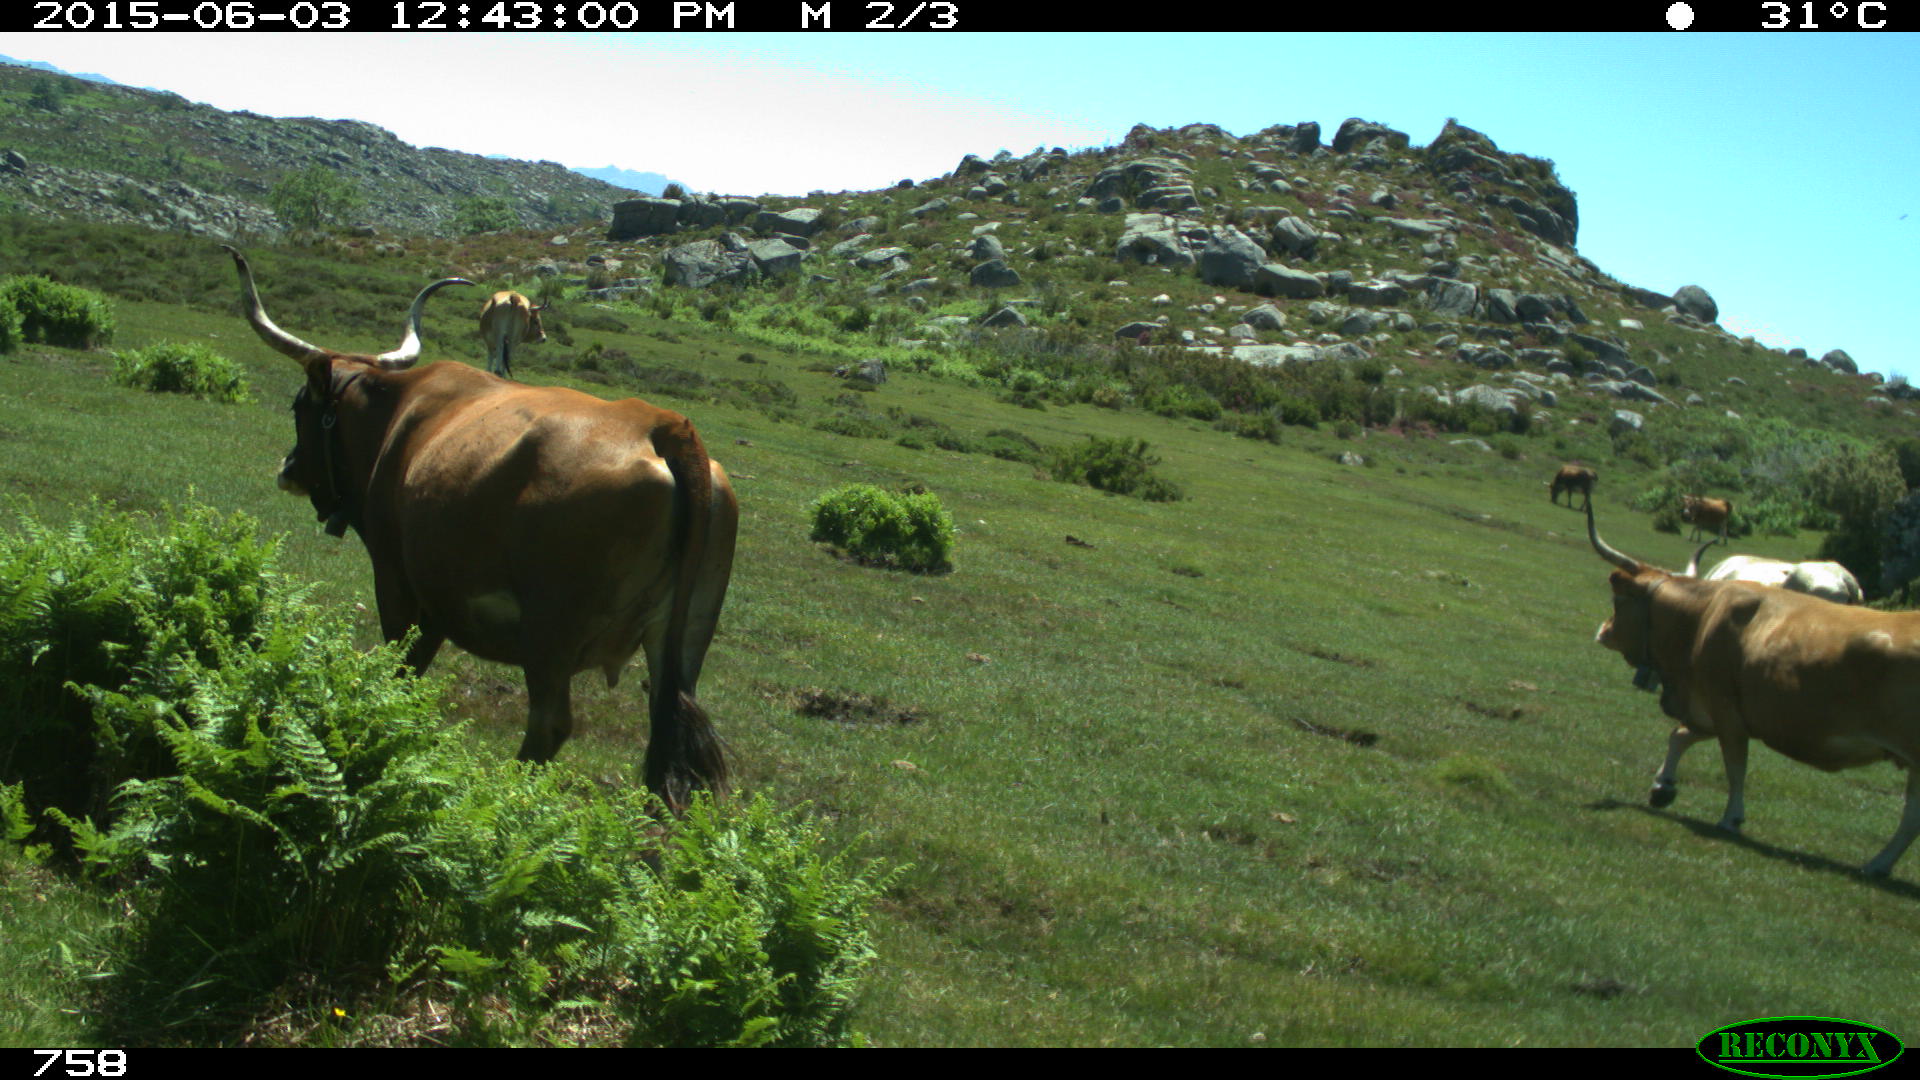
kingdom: Animalia
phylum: Chordata
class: Mammalia
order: Artiodactyla
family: Bovidae
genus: Bos
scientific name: Bos taurus
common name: Domesticated cattle
